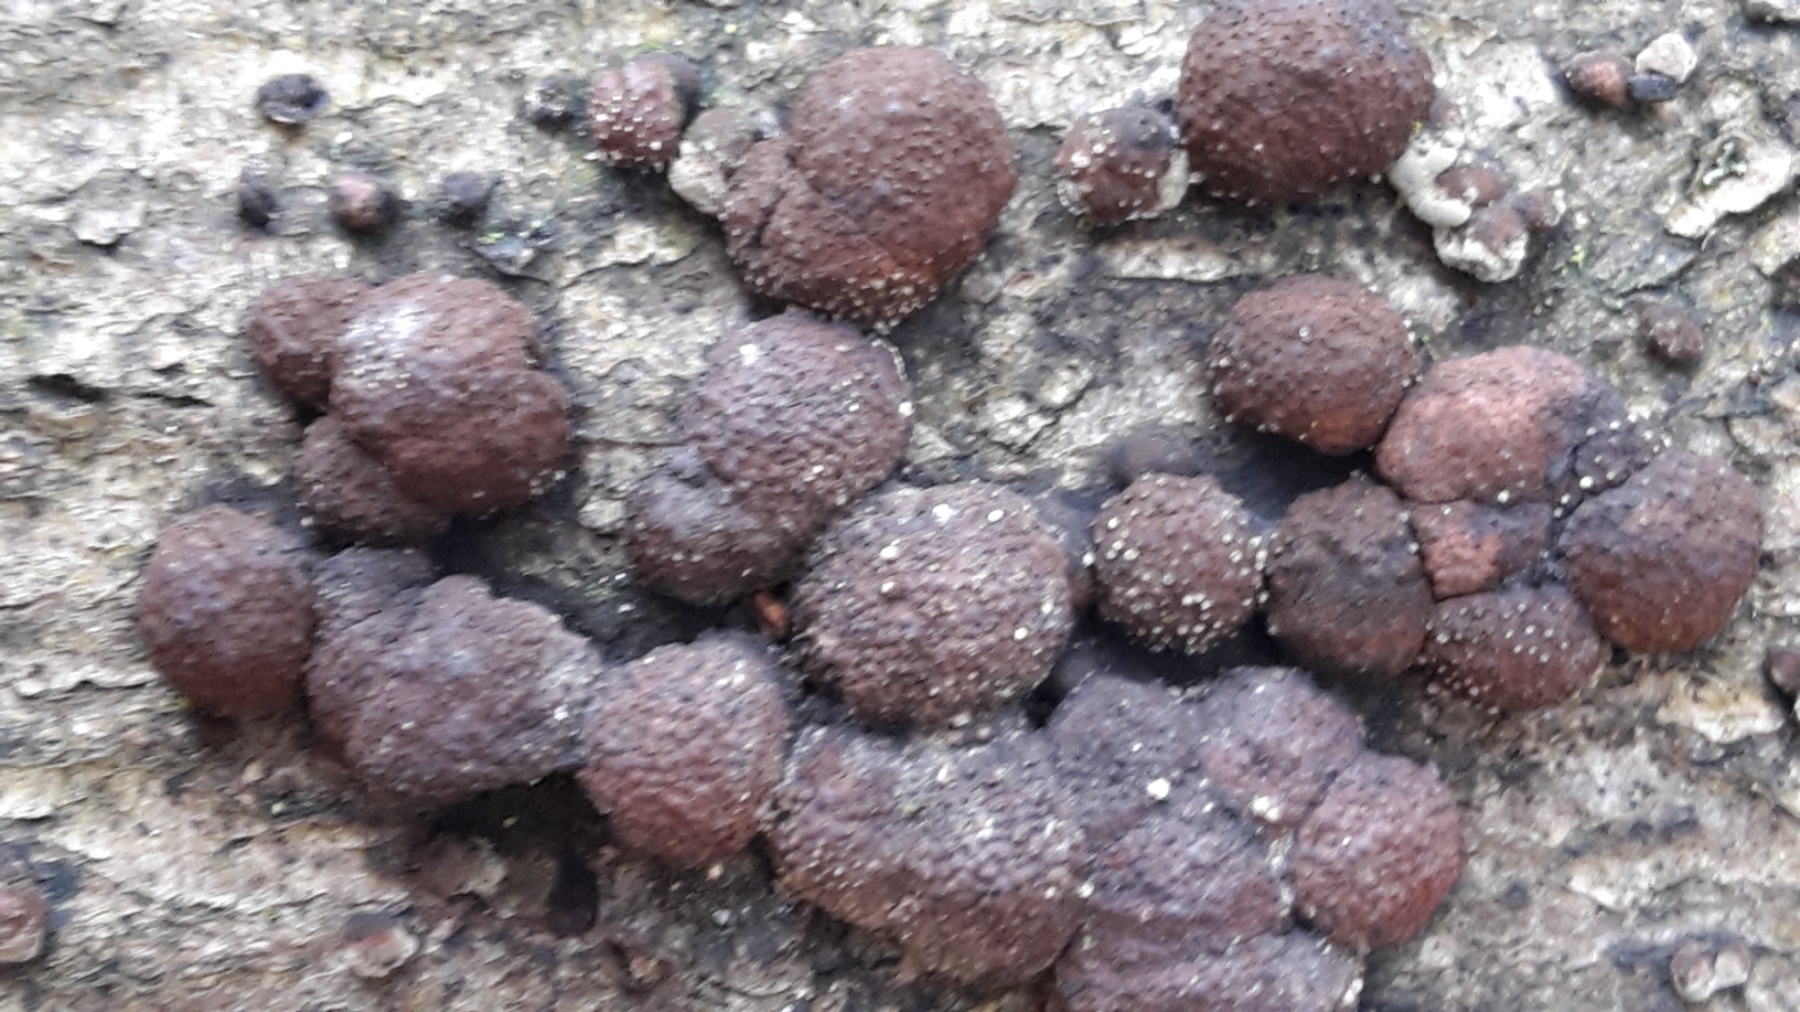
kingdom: Fungi
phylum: Ascomycota
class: Sordariomycetes
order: Xylariales
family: Hypoxylaceae
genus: Hypoxylon
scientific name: Hypoxylon fragiforme
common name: kuljordbær
